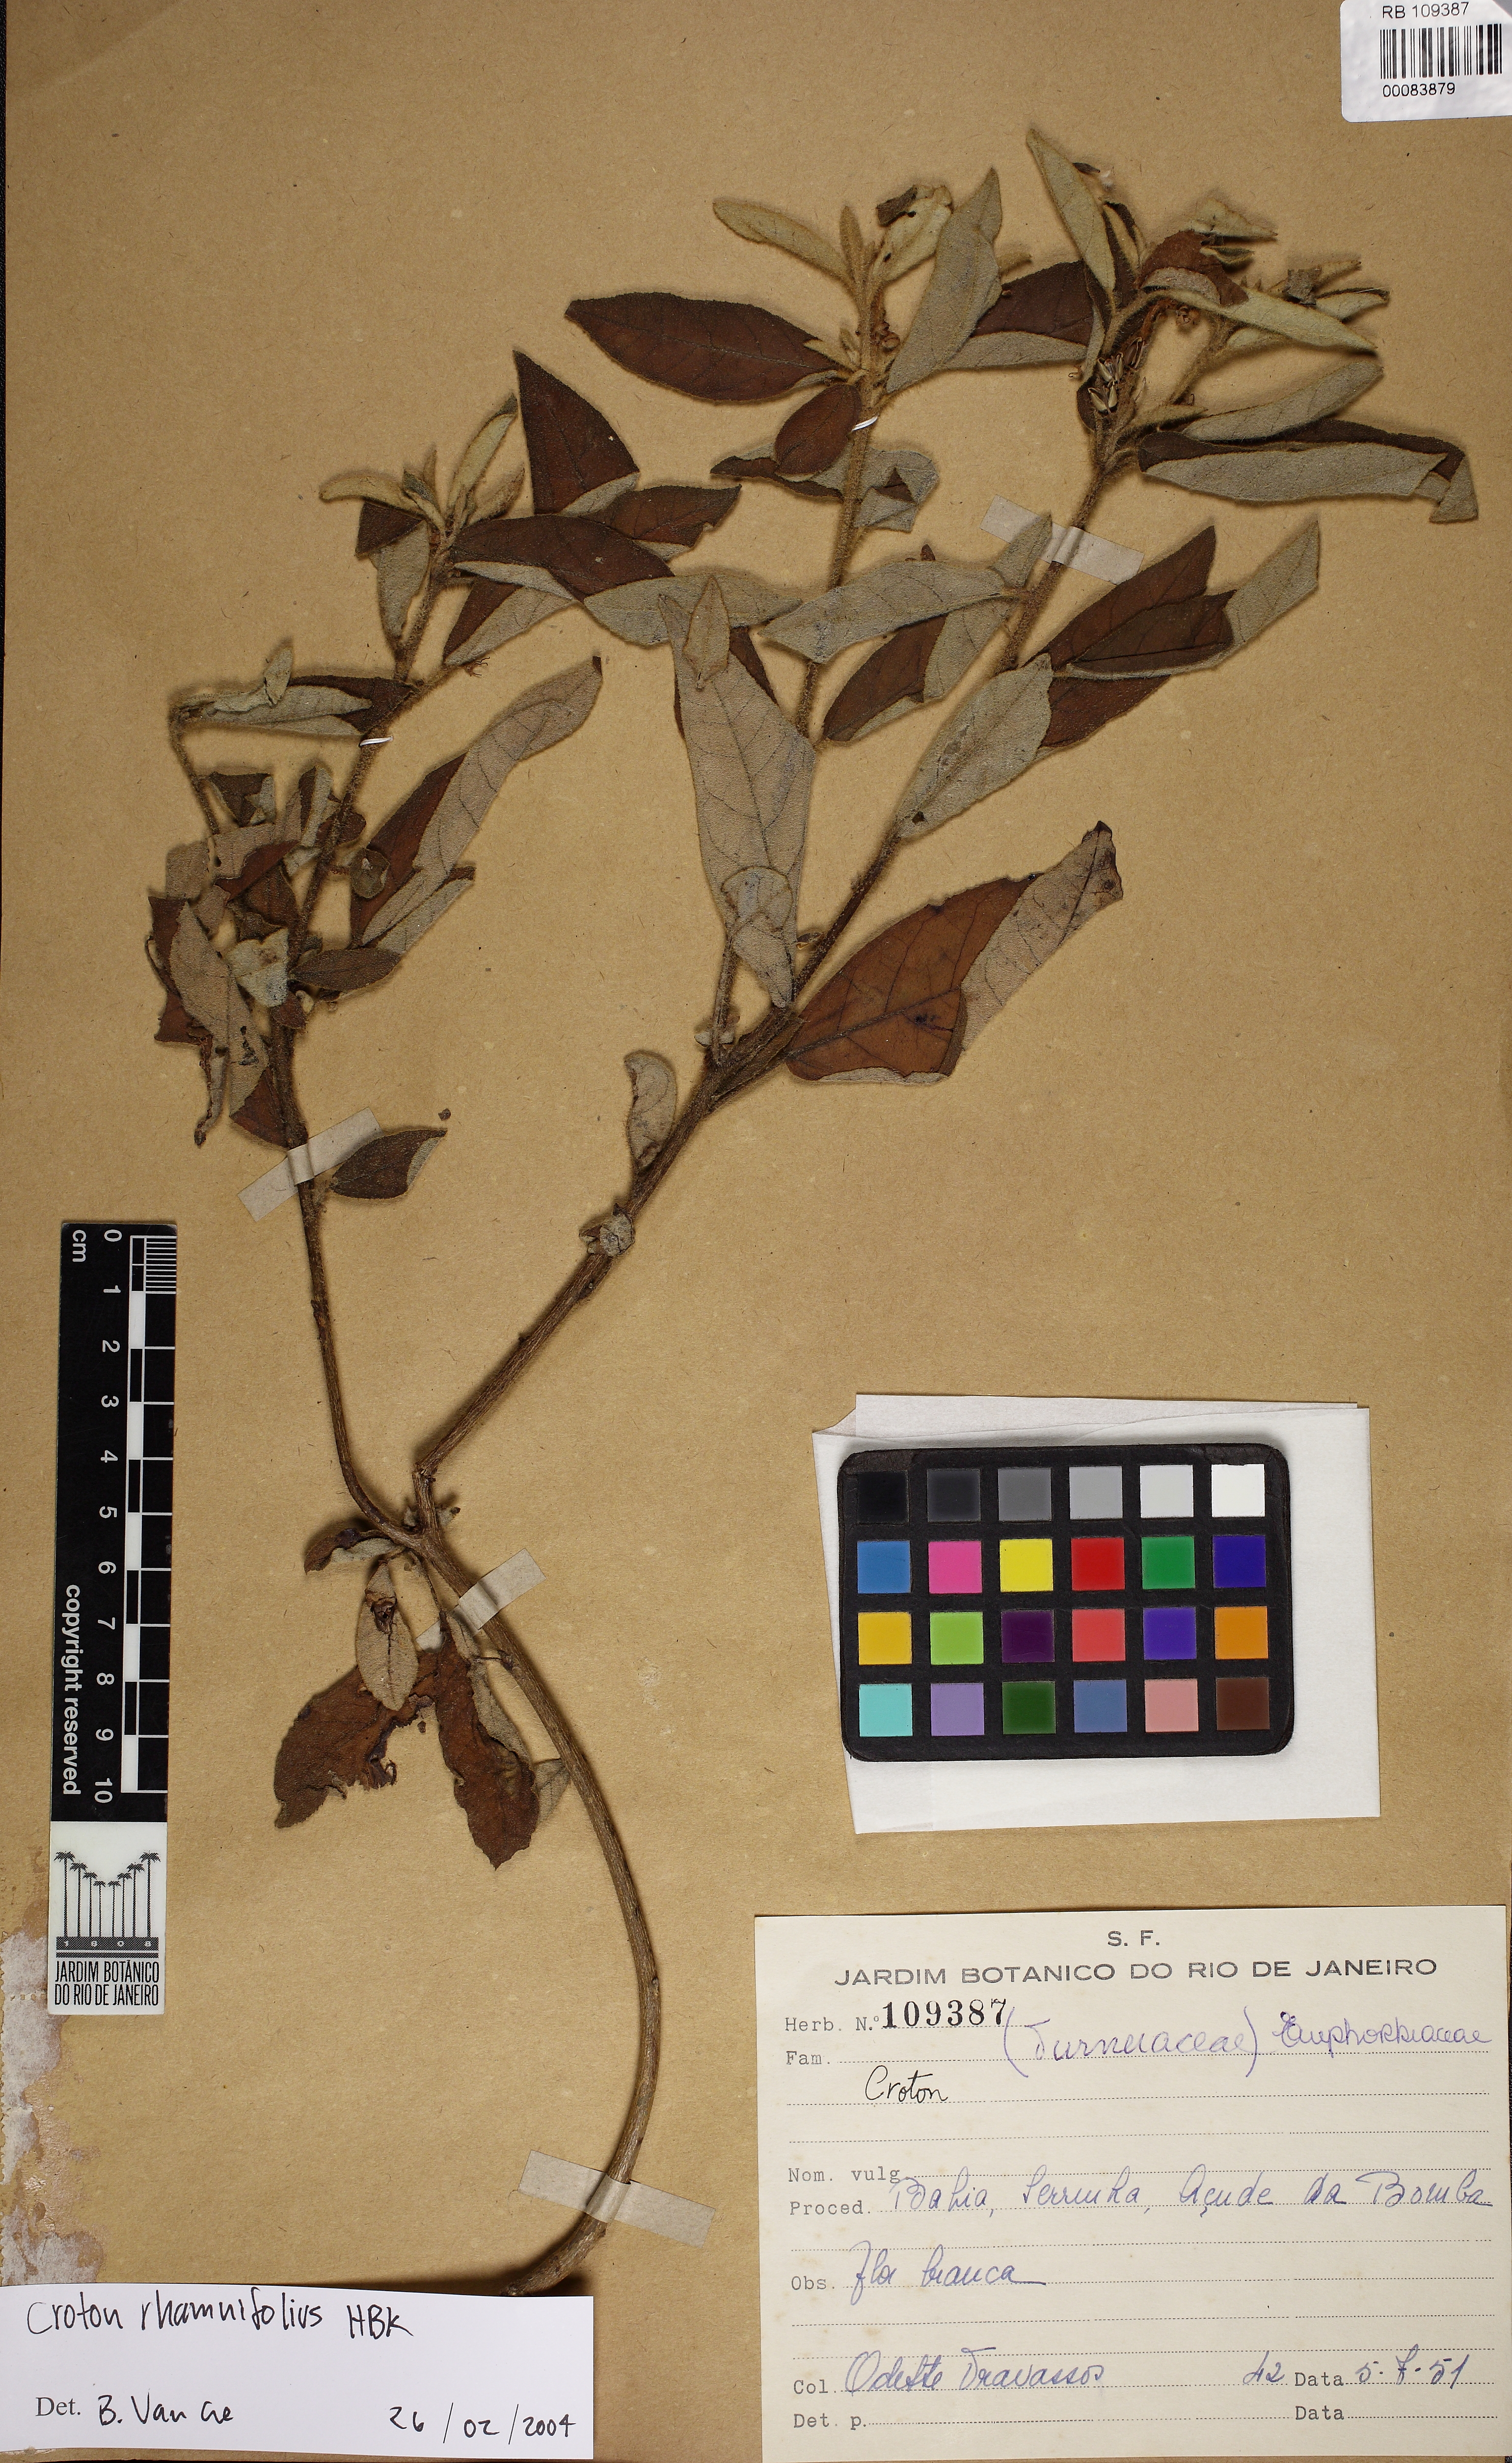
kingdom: Plantae
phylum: Tracheophyta
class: Magnoliopsida
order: Malpighiales
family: Euphorbiaceae
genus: Mallotus
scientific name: Mallotus rhamnifolius
